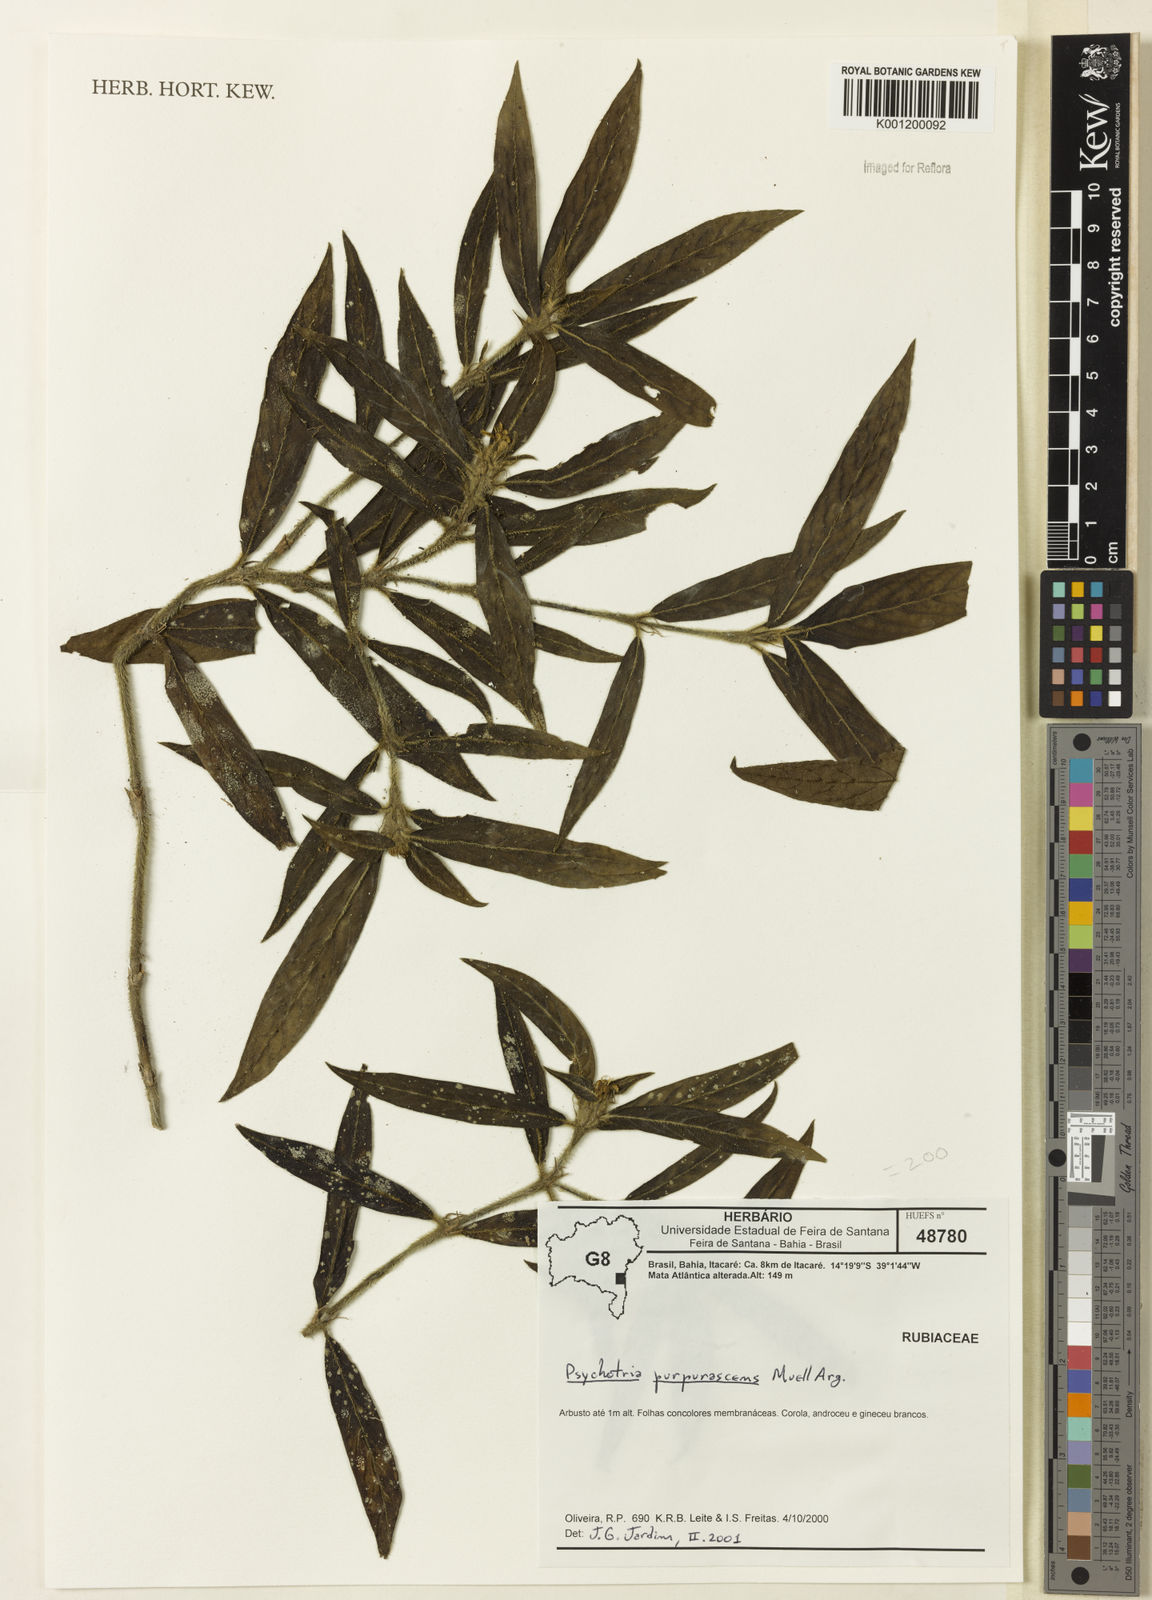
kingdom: Plantae
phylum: Tracheophyta
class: Magnoliopsida
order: Gentianales
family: Rubiaceae
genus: Psychotria
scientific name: Psychotria stachyoides
